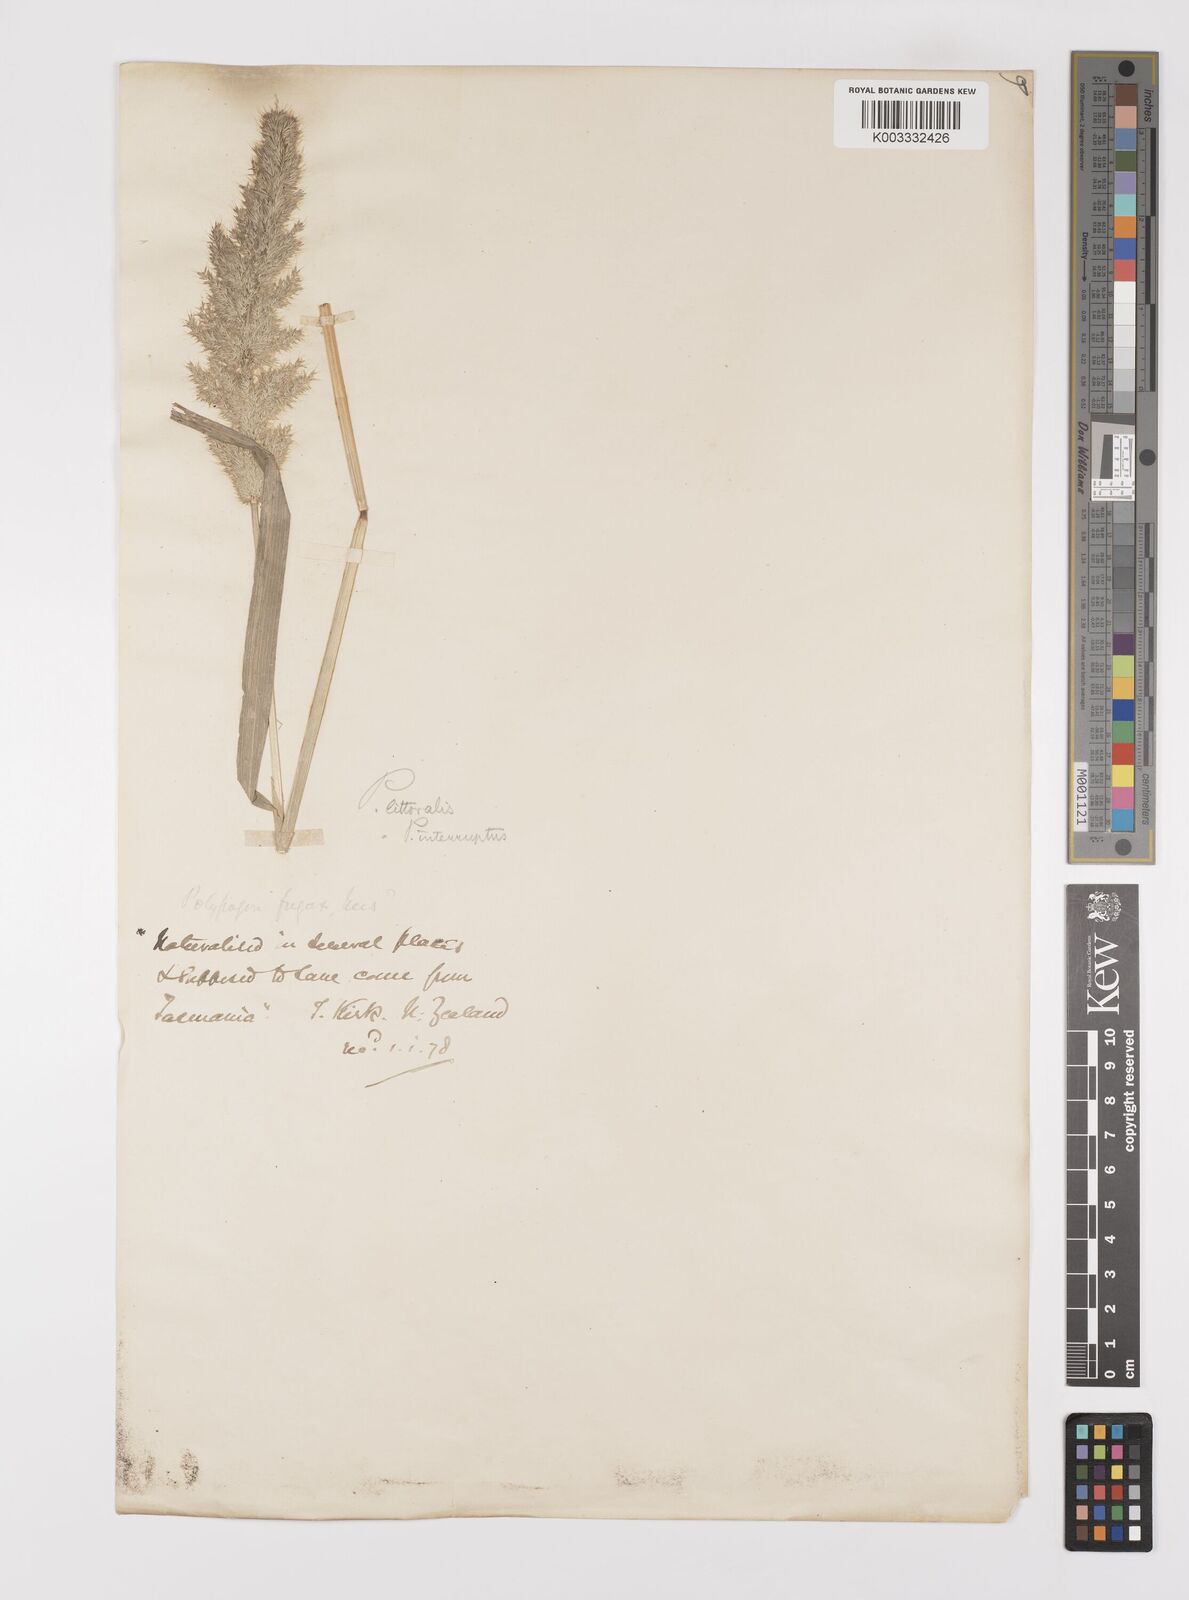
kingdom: Plantae
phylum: Tracheophyta
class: Liliopsida
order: Poales
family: Poaceae
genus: Polypogon
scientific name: Polypogon fugax
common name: Asia minor bluegrass
